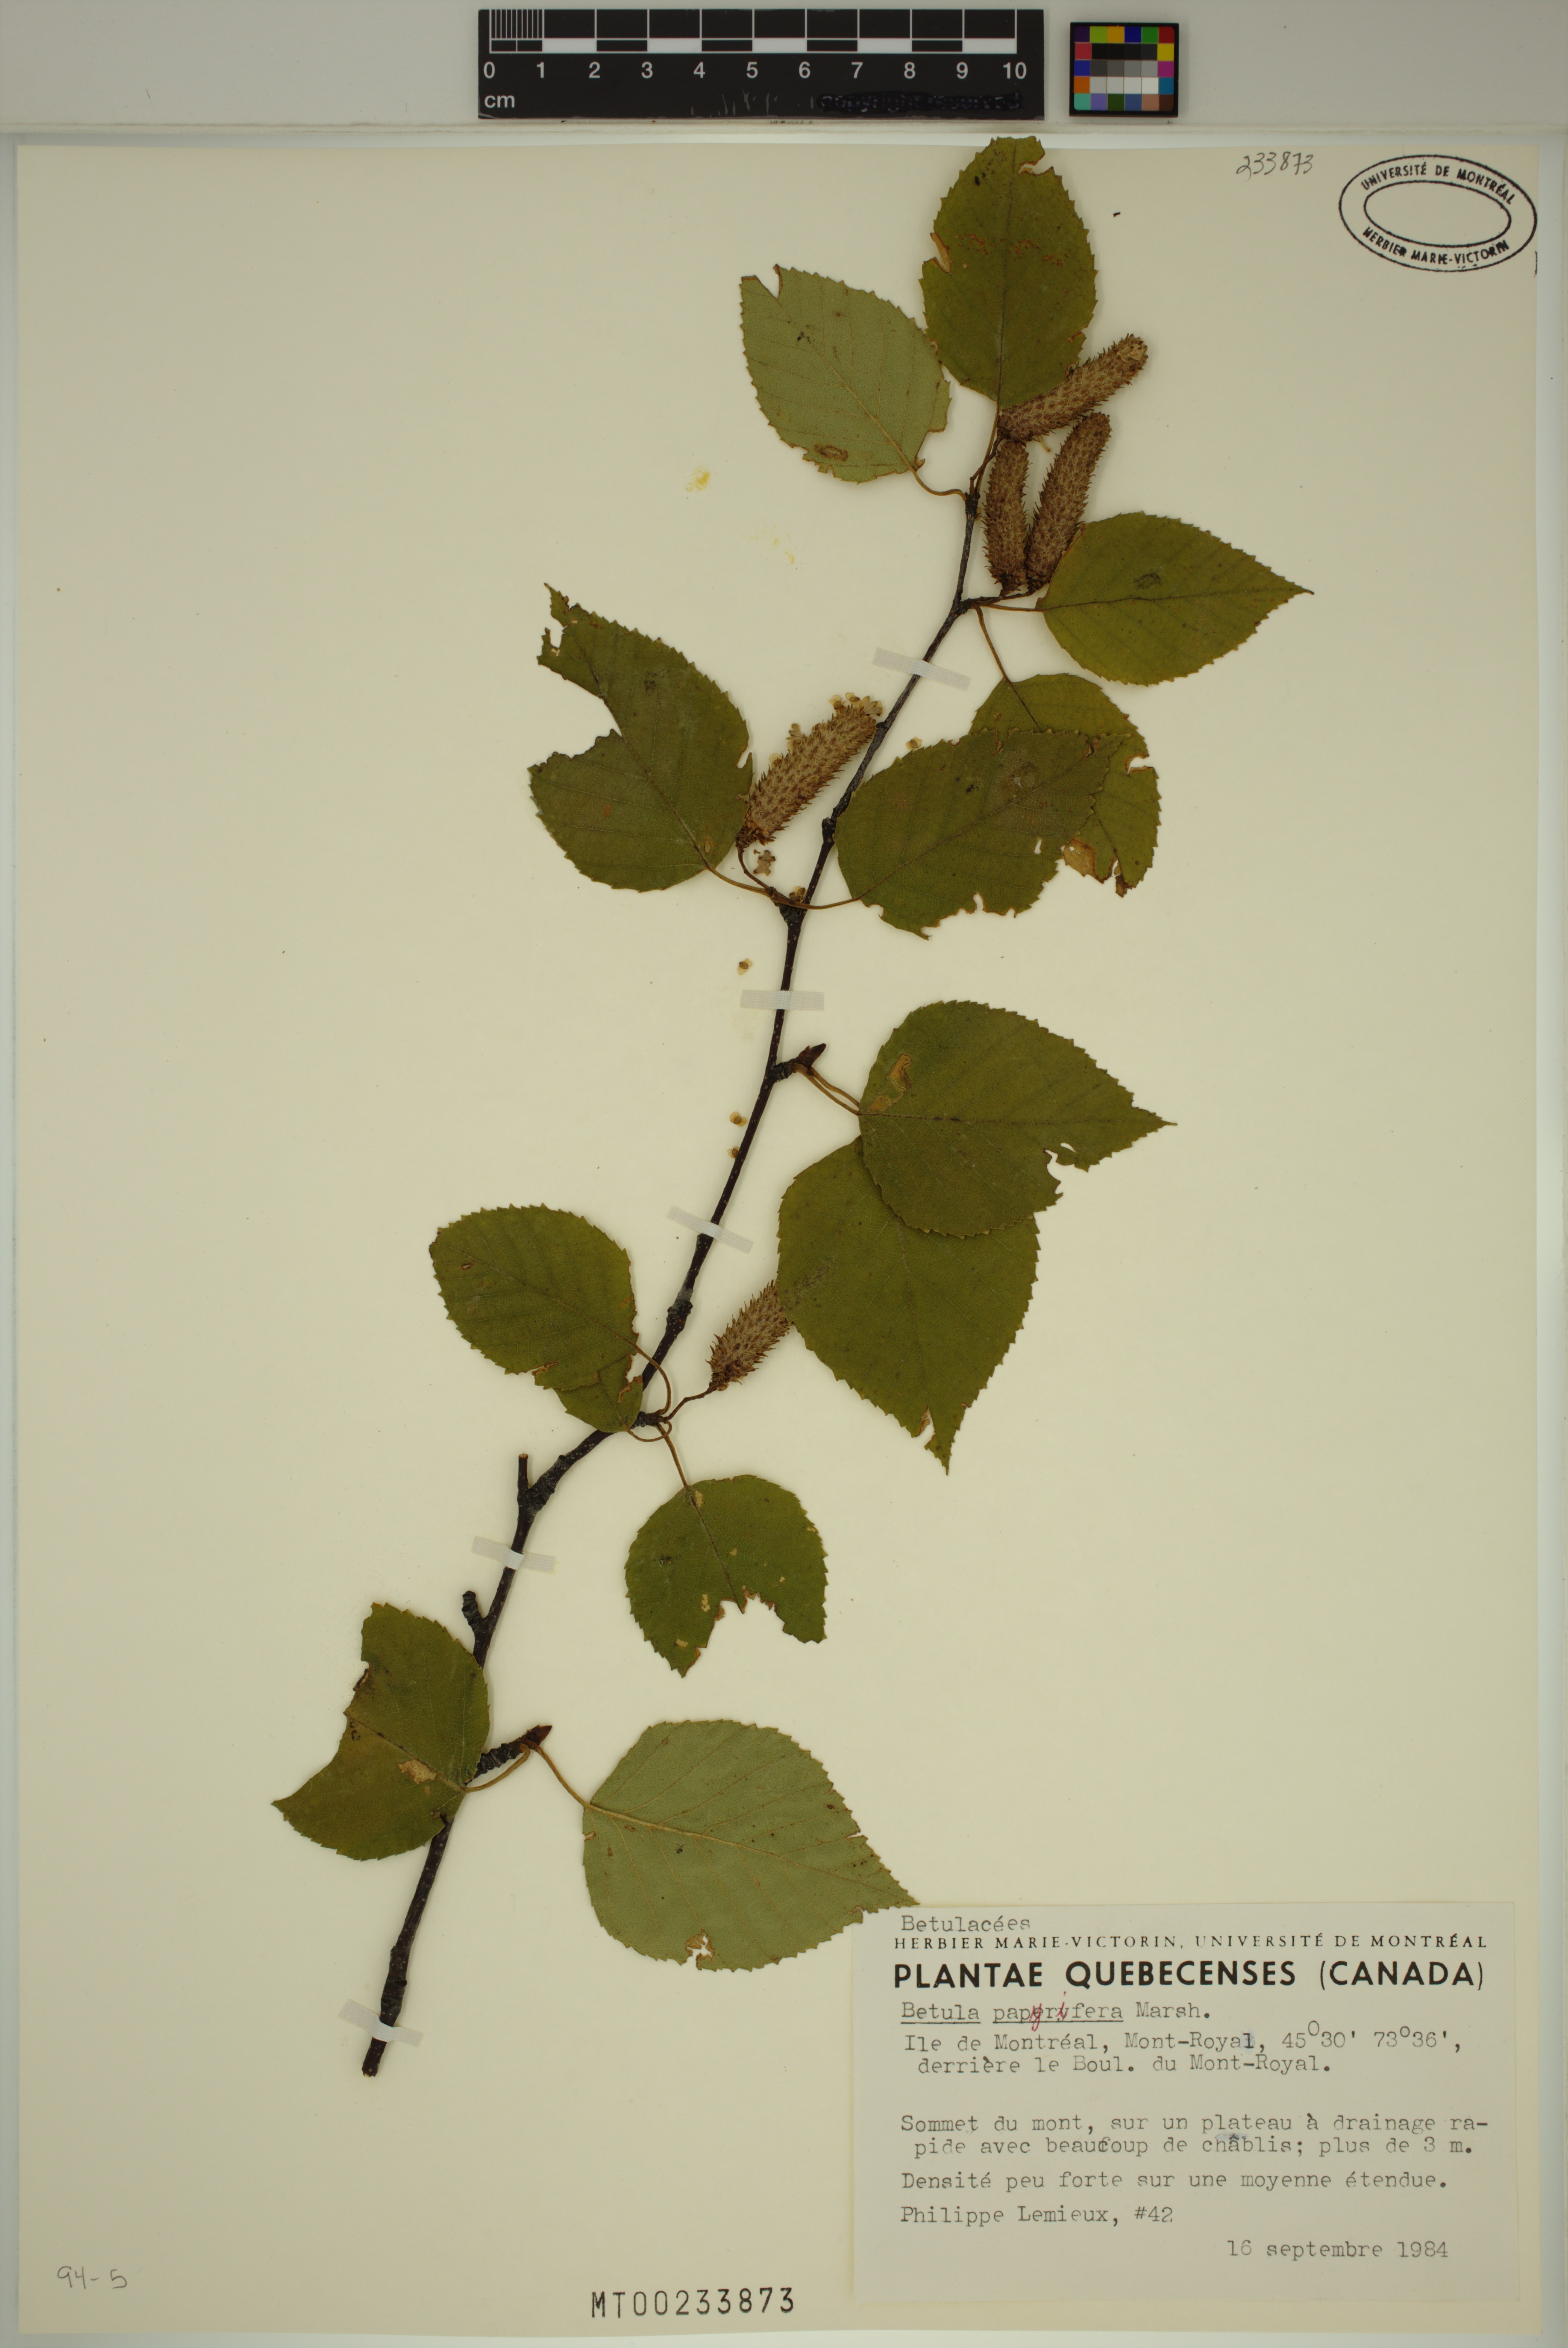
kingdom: Plantae
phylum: Tracheophyta
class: Magnoliopsida
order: Fagales
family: Betulaceae
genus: Betula
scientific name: Betula papyrifera
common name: Paper birch
